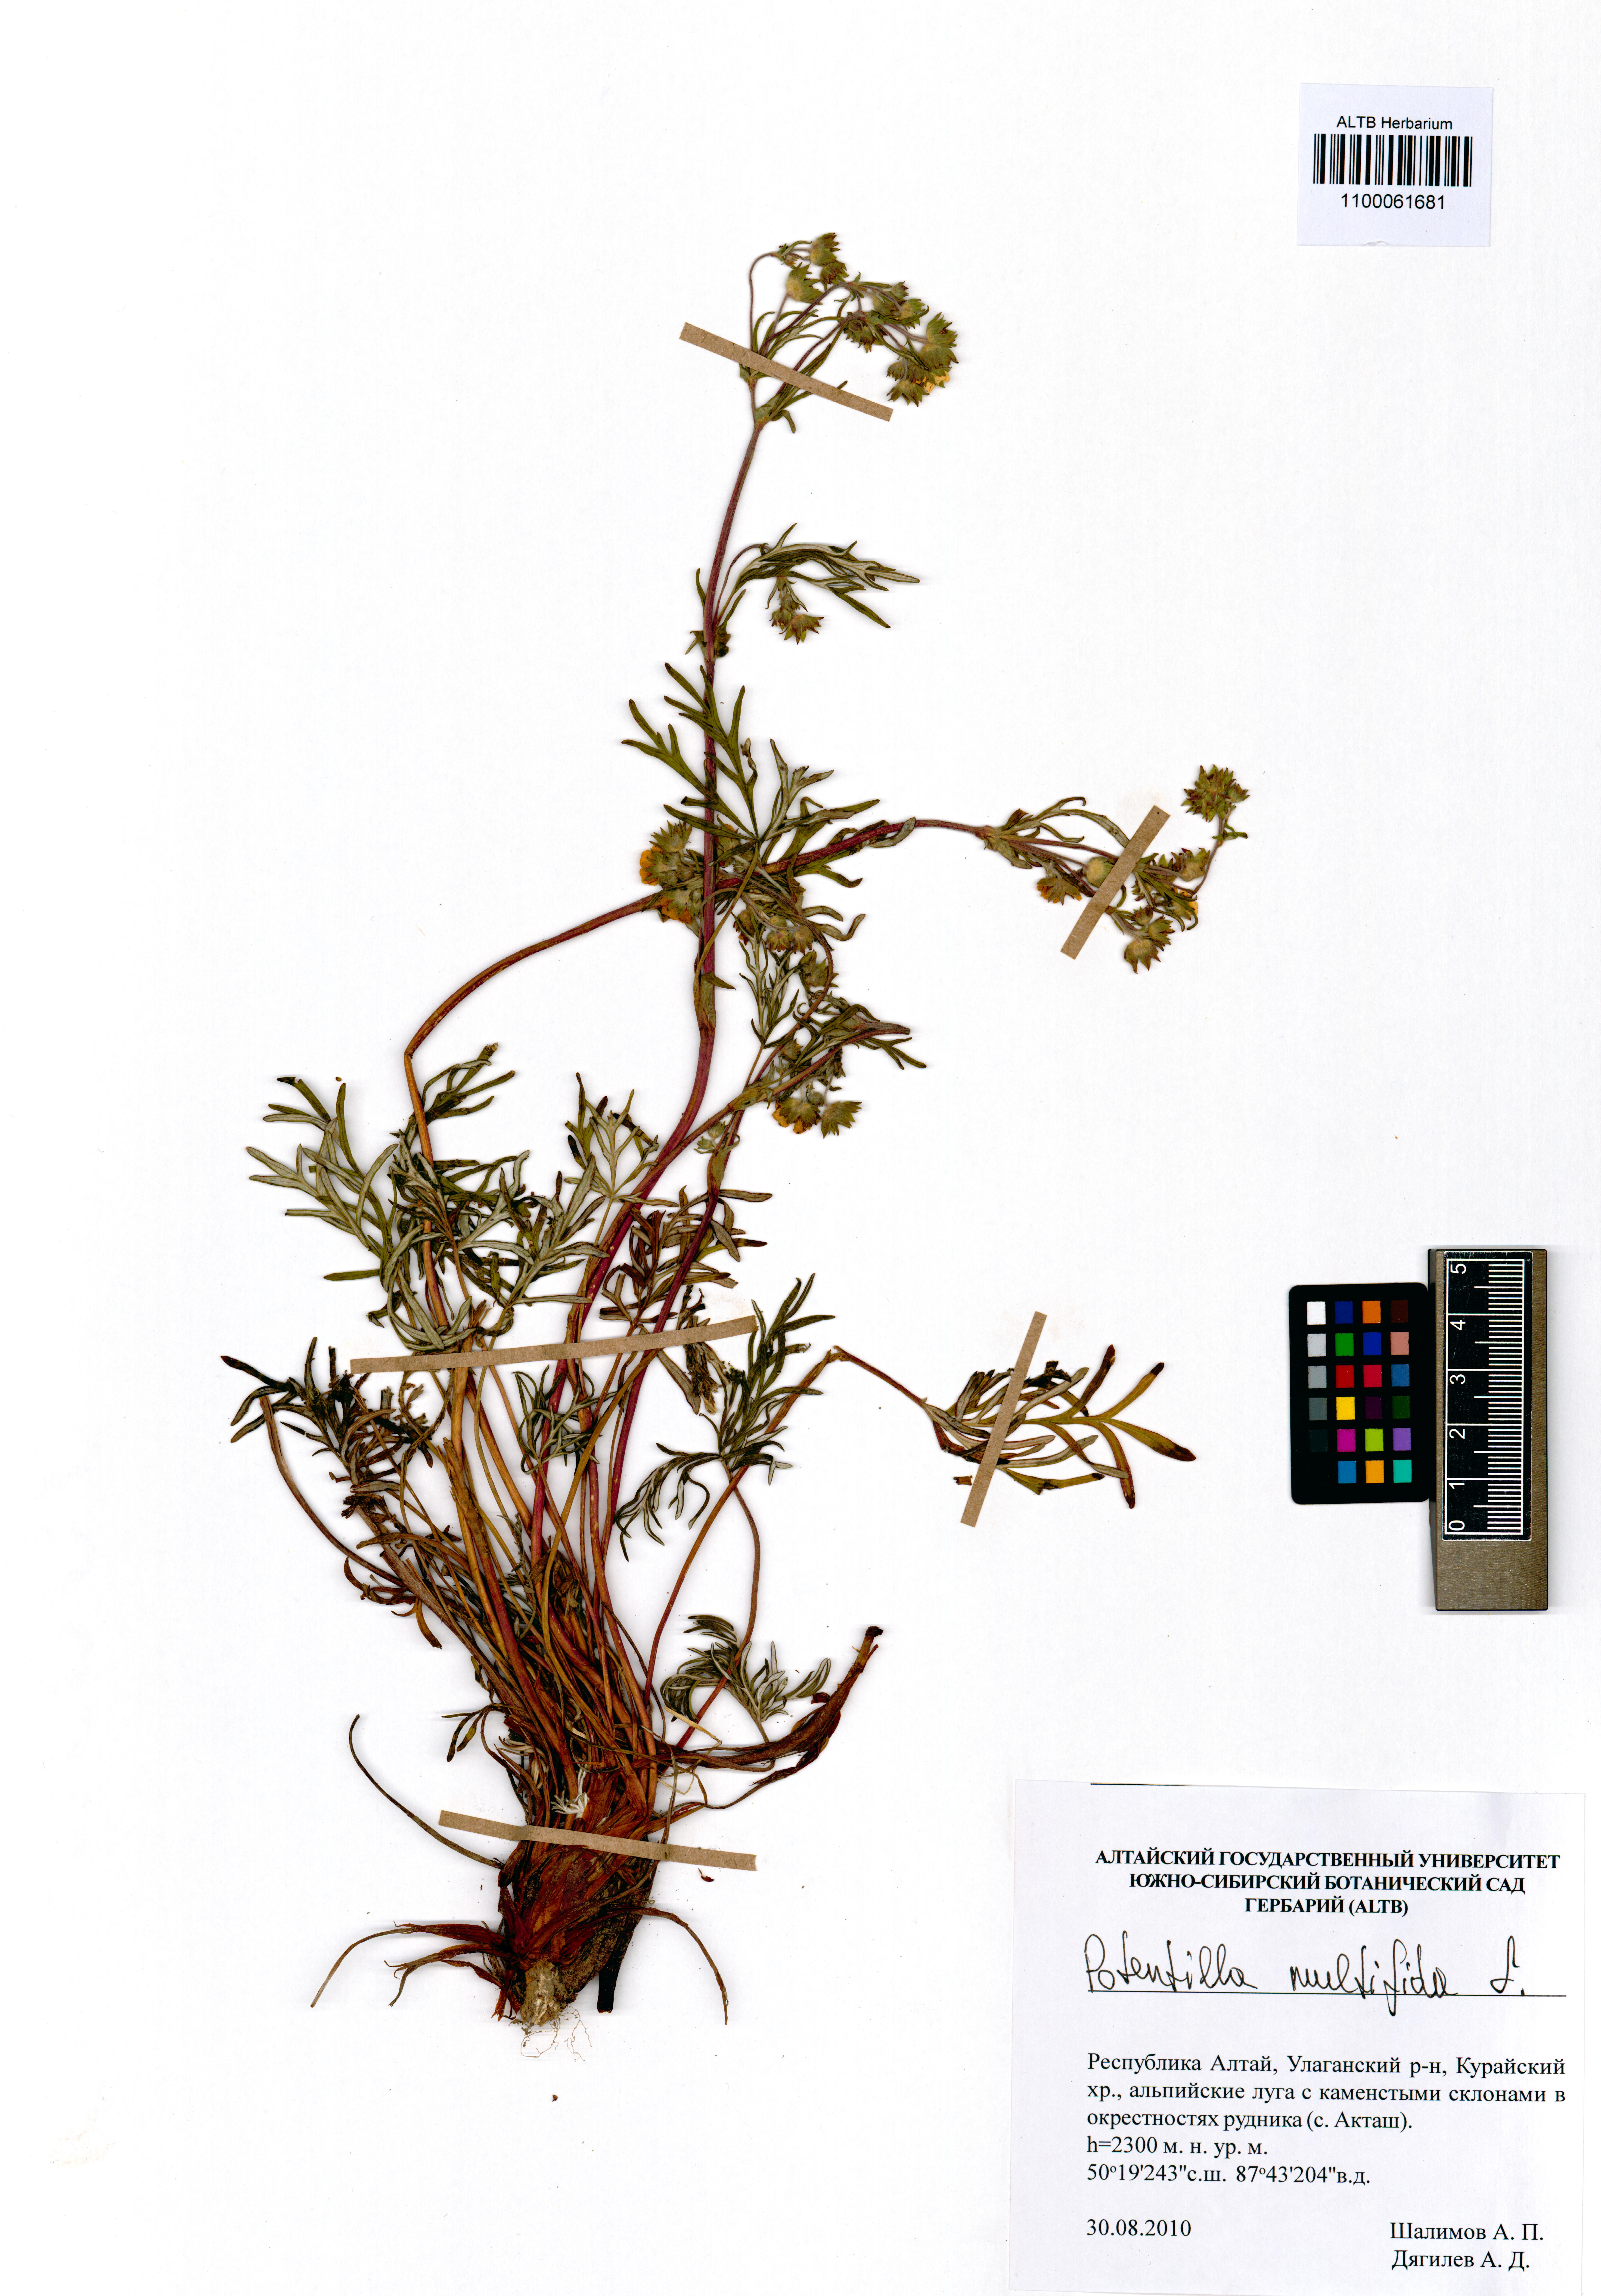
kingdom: Plantae
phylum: Tracheophyta
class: Magnoliopsida
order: Rosales
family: Rosaceae
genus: Potentilla
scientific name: Potentilla multifida
